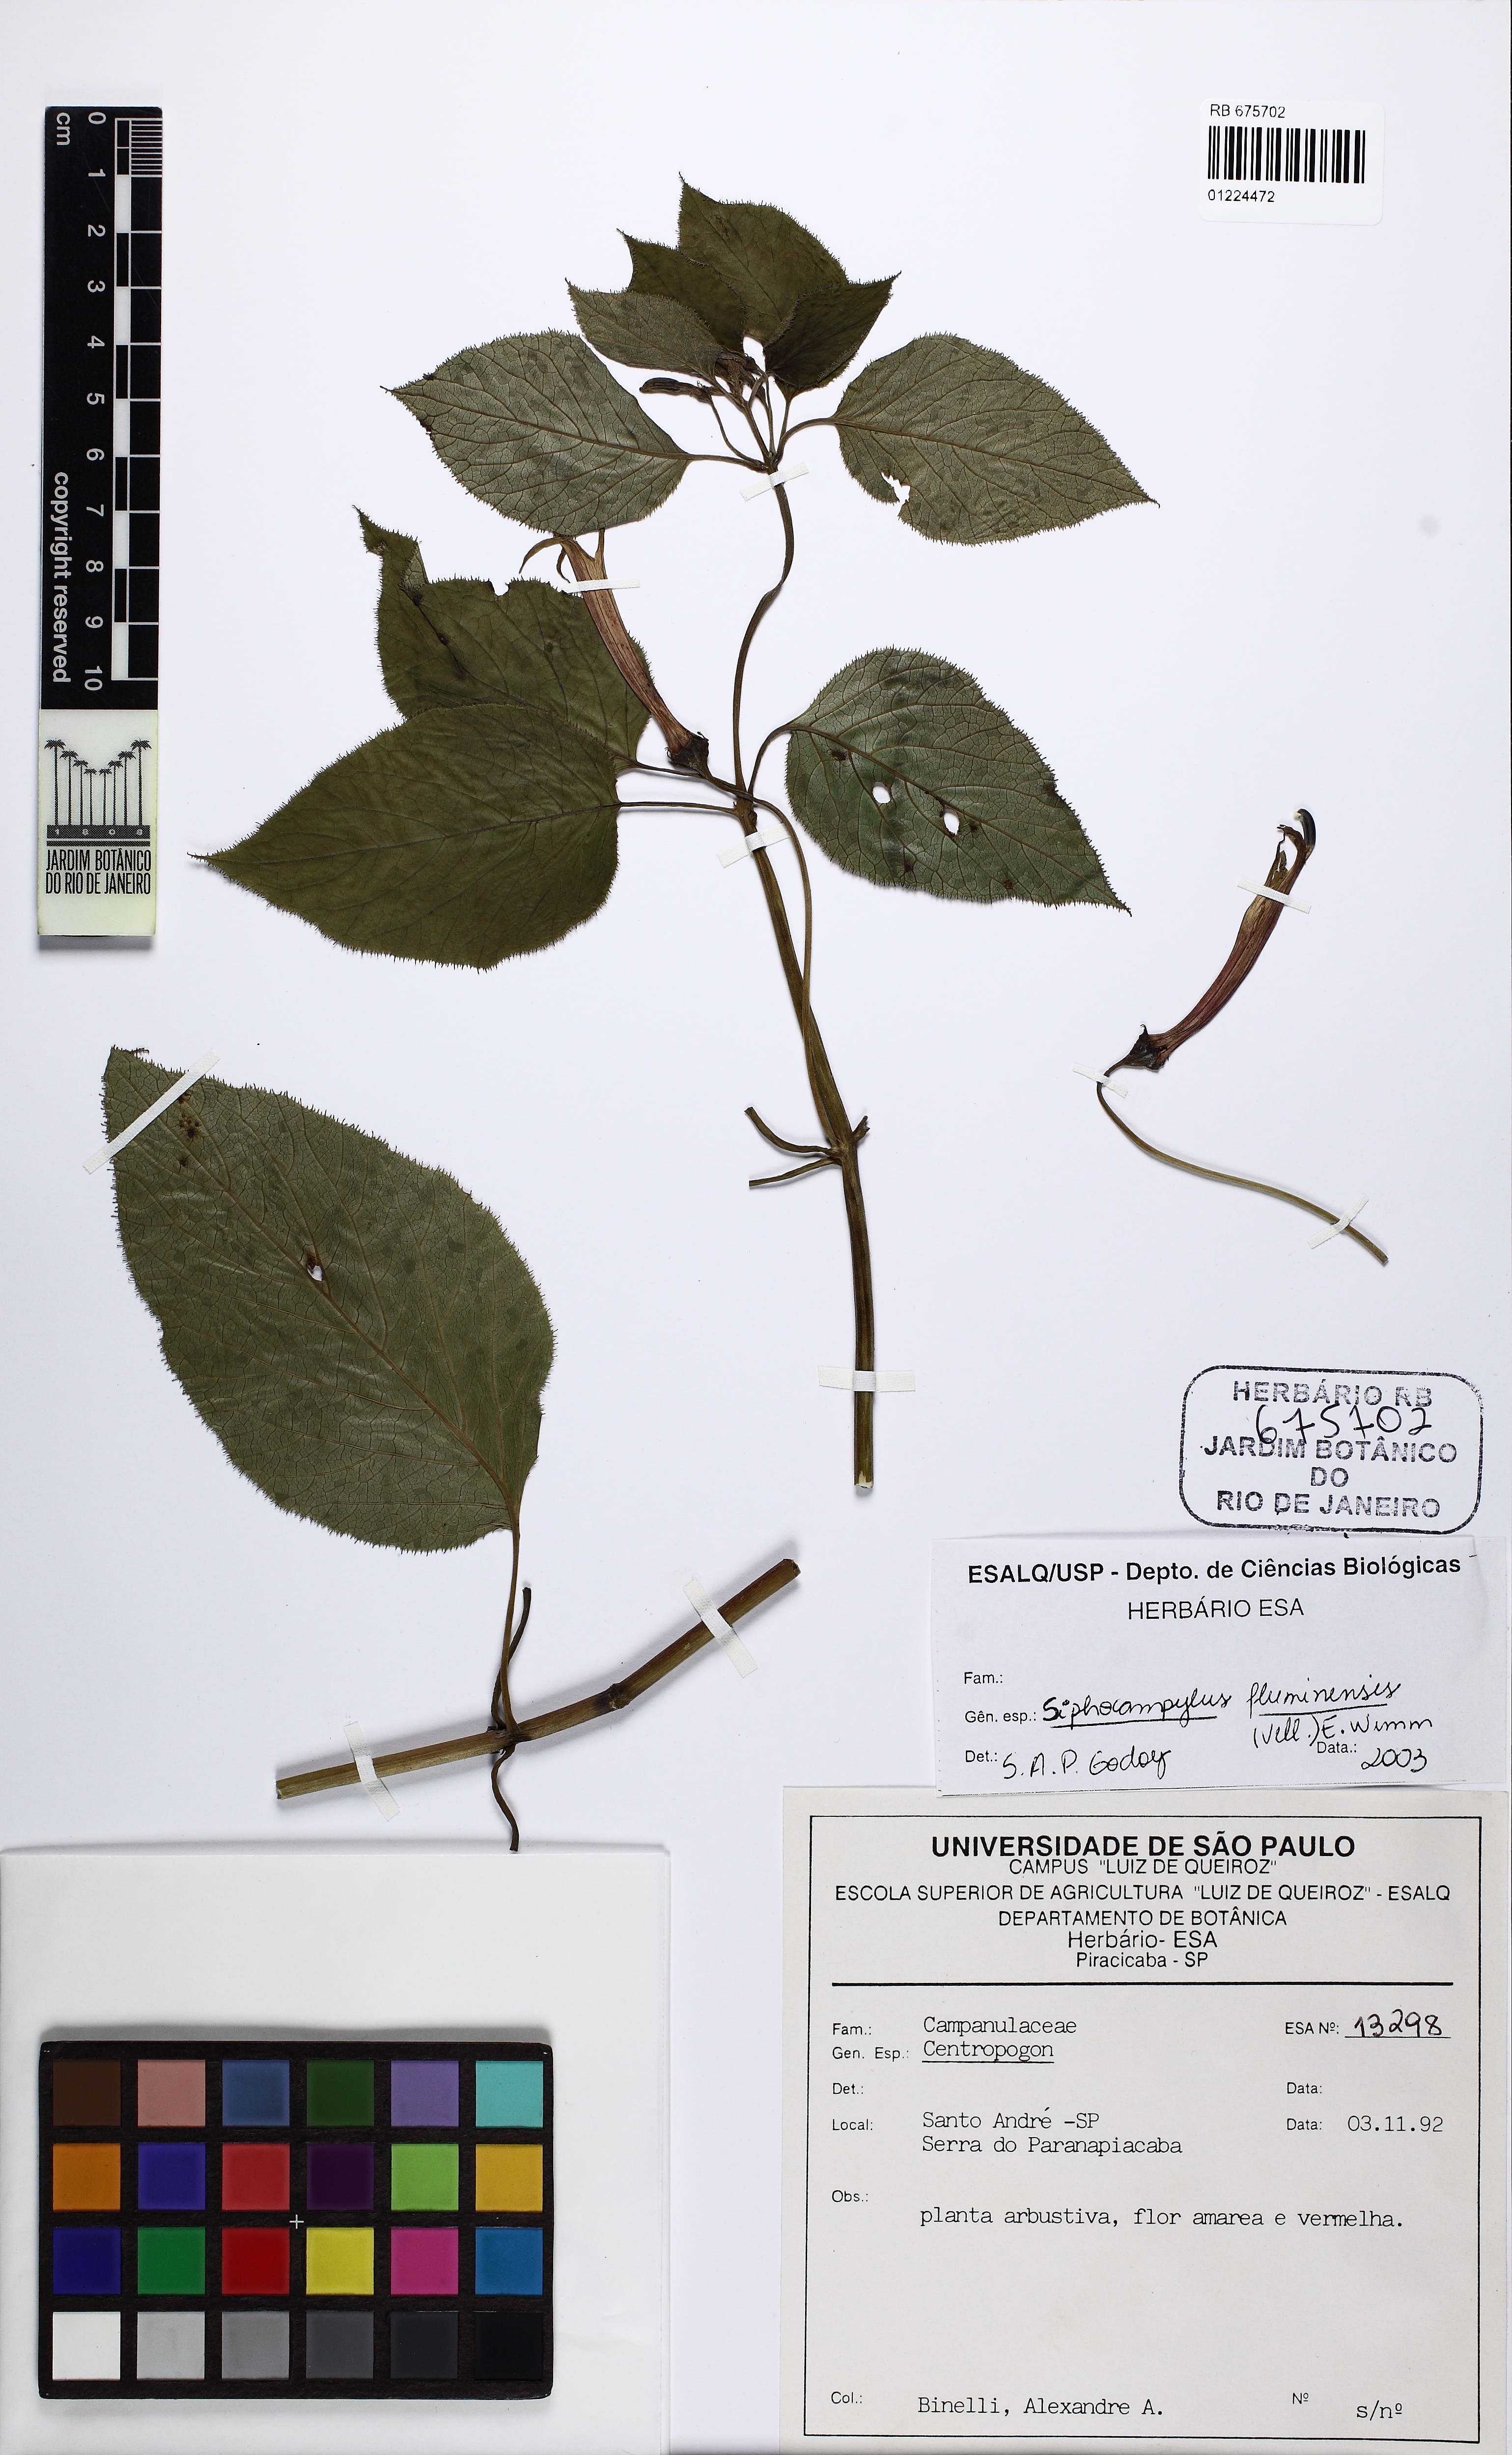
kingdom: Plantae
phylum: Tracheophyta
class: Magnoliopsida
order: Asterales
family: Campanulaceae
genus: Siphocampylus
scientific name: Siphocampylus fluminensis
